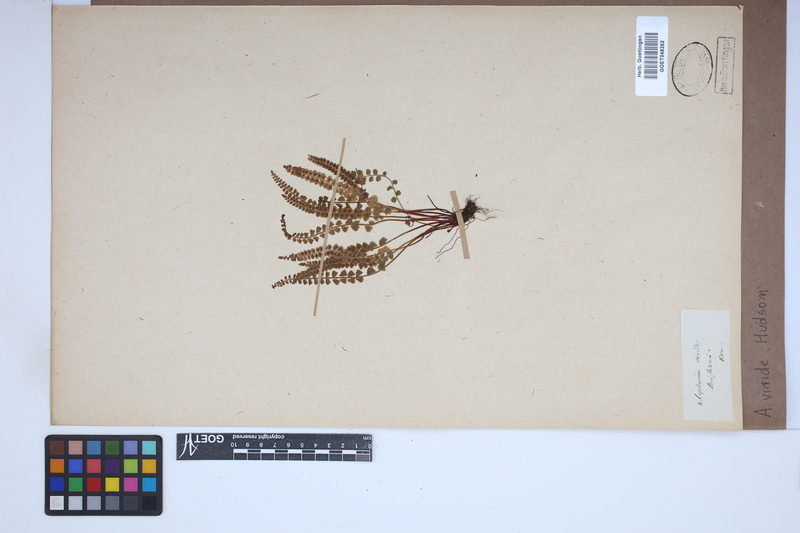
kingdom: Plantae
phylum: Tracheophyta
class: Polypodiopsida
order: Polypodiales
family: Aspleniaceae
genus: Asplenium
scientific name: Asplenium viride
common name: Green spleenwort
